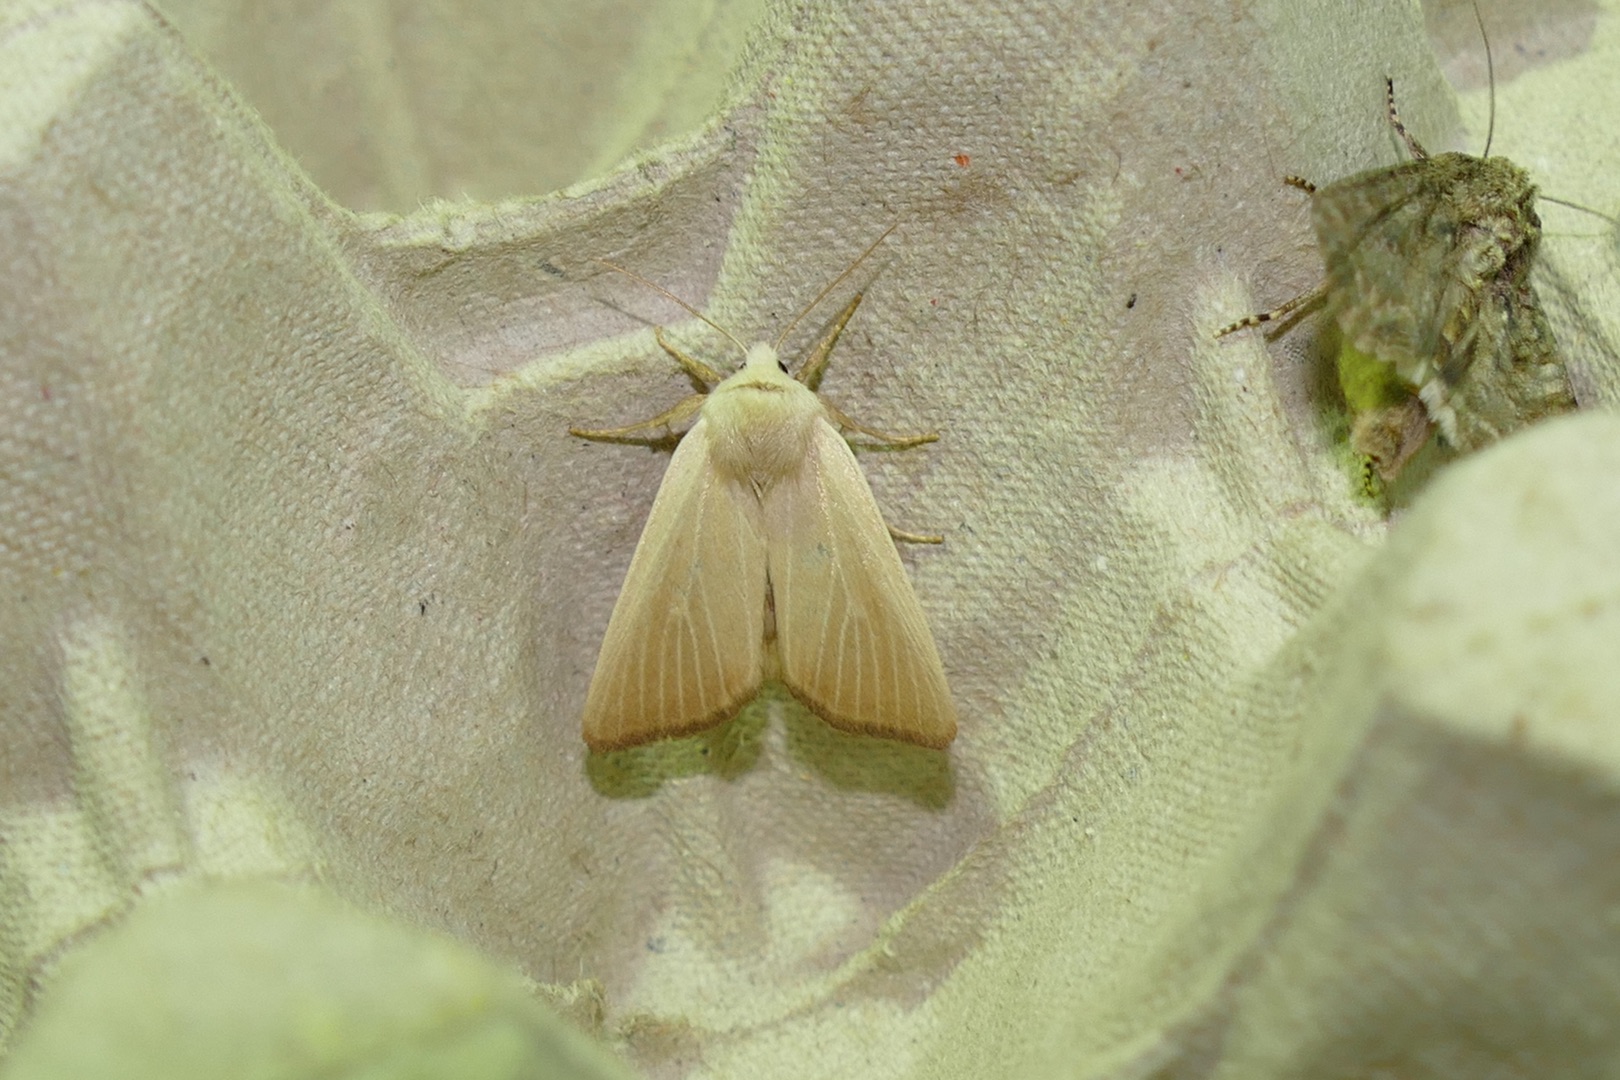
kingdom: Animalia
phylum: Arthropoda
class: Insecta
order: Lepidoptera
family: Noctuidae
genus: Arenostola
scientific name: Arenostola phragmitidis
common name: Tagrørugle
